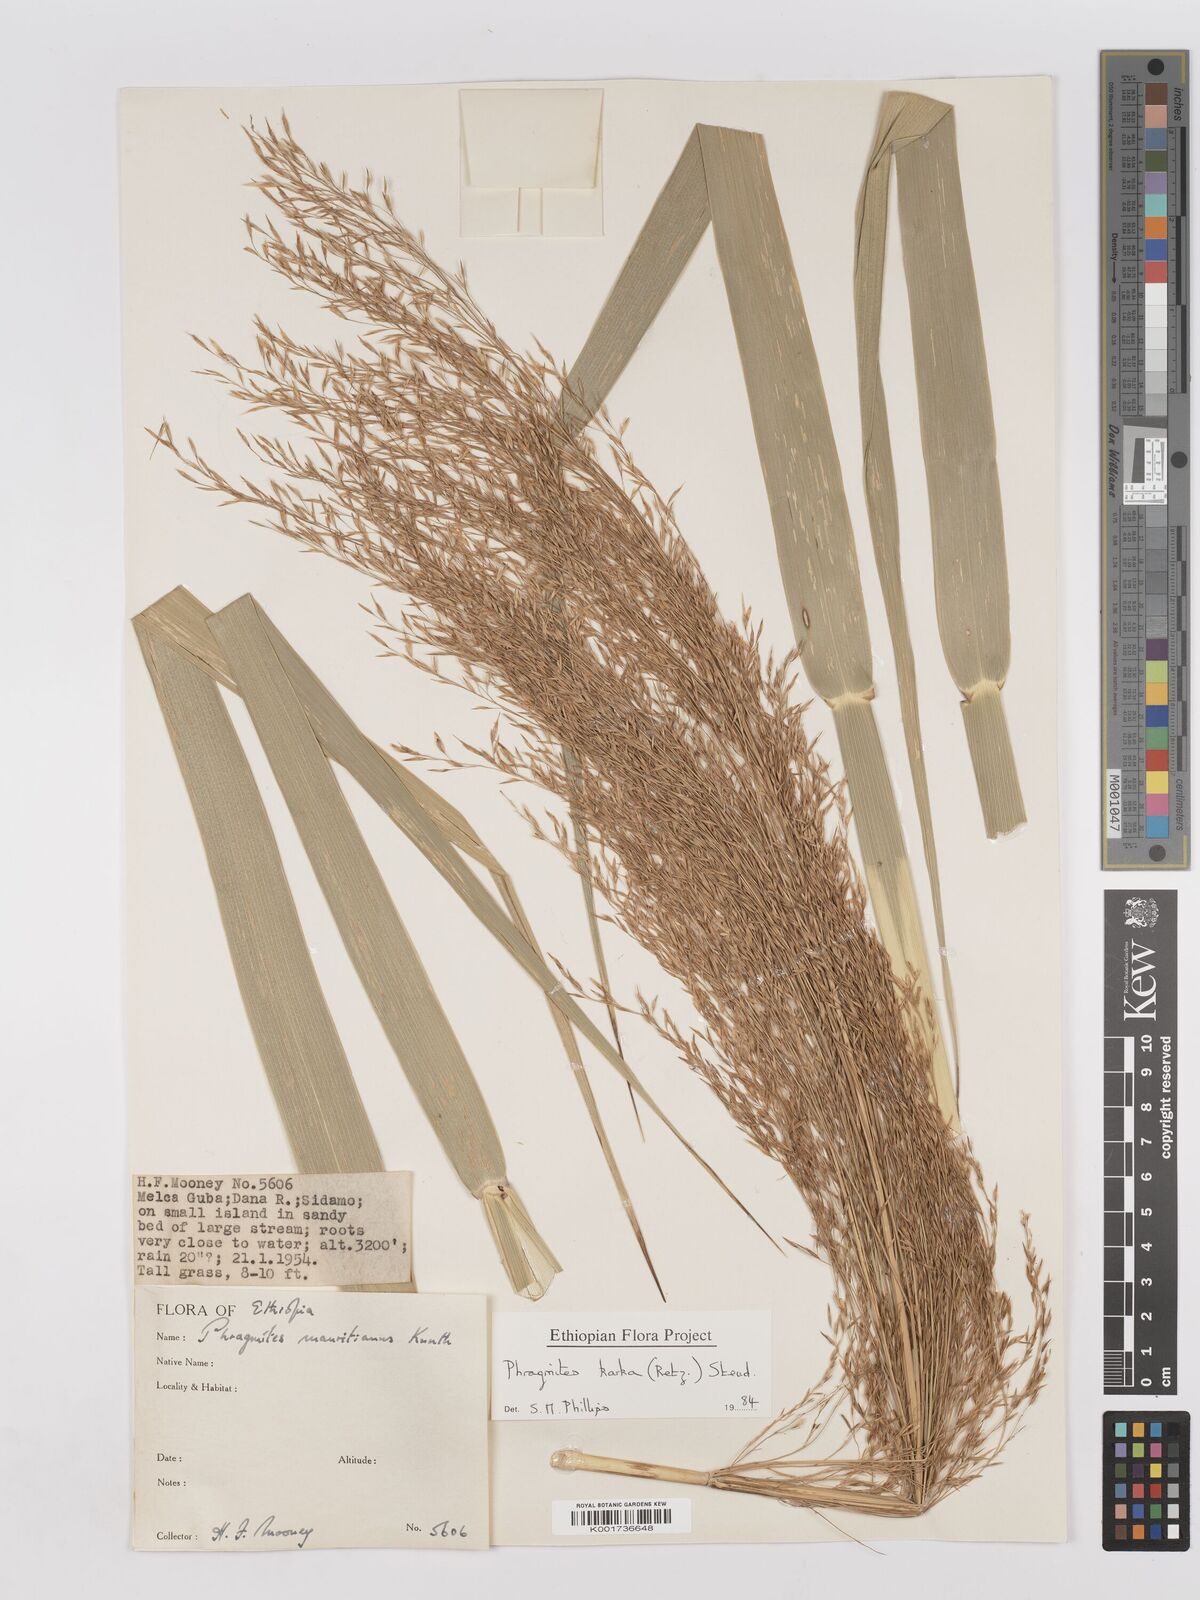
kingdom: Plantae
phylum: Tracheophyta
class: Liliopsida
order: Poales
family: Poaceae
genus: Phragmites
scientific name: Phragmites karka
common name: Tropical reed
